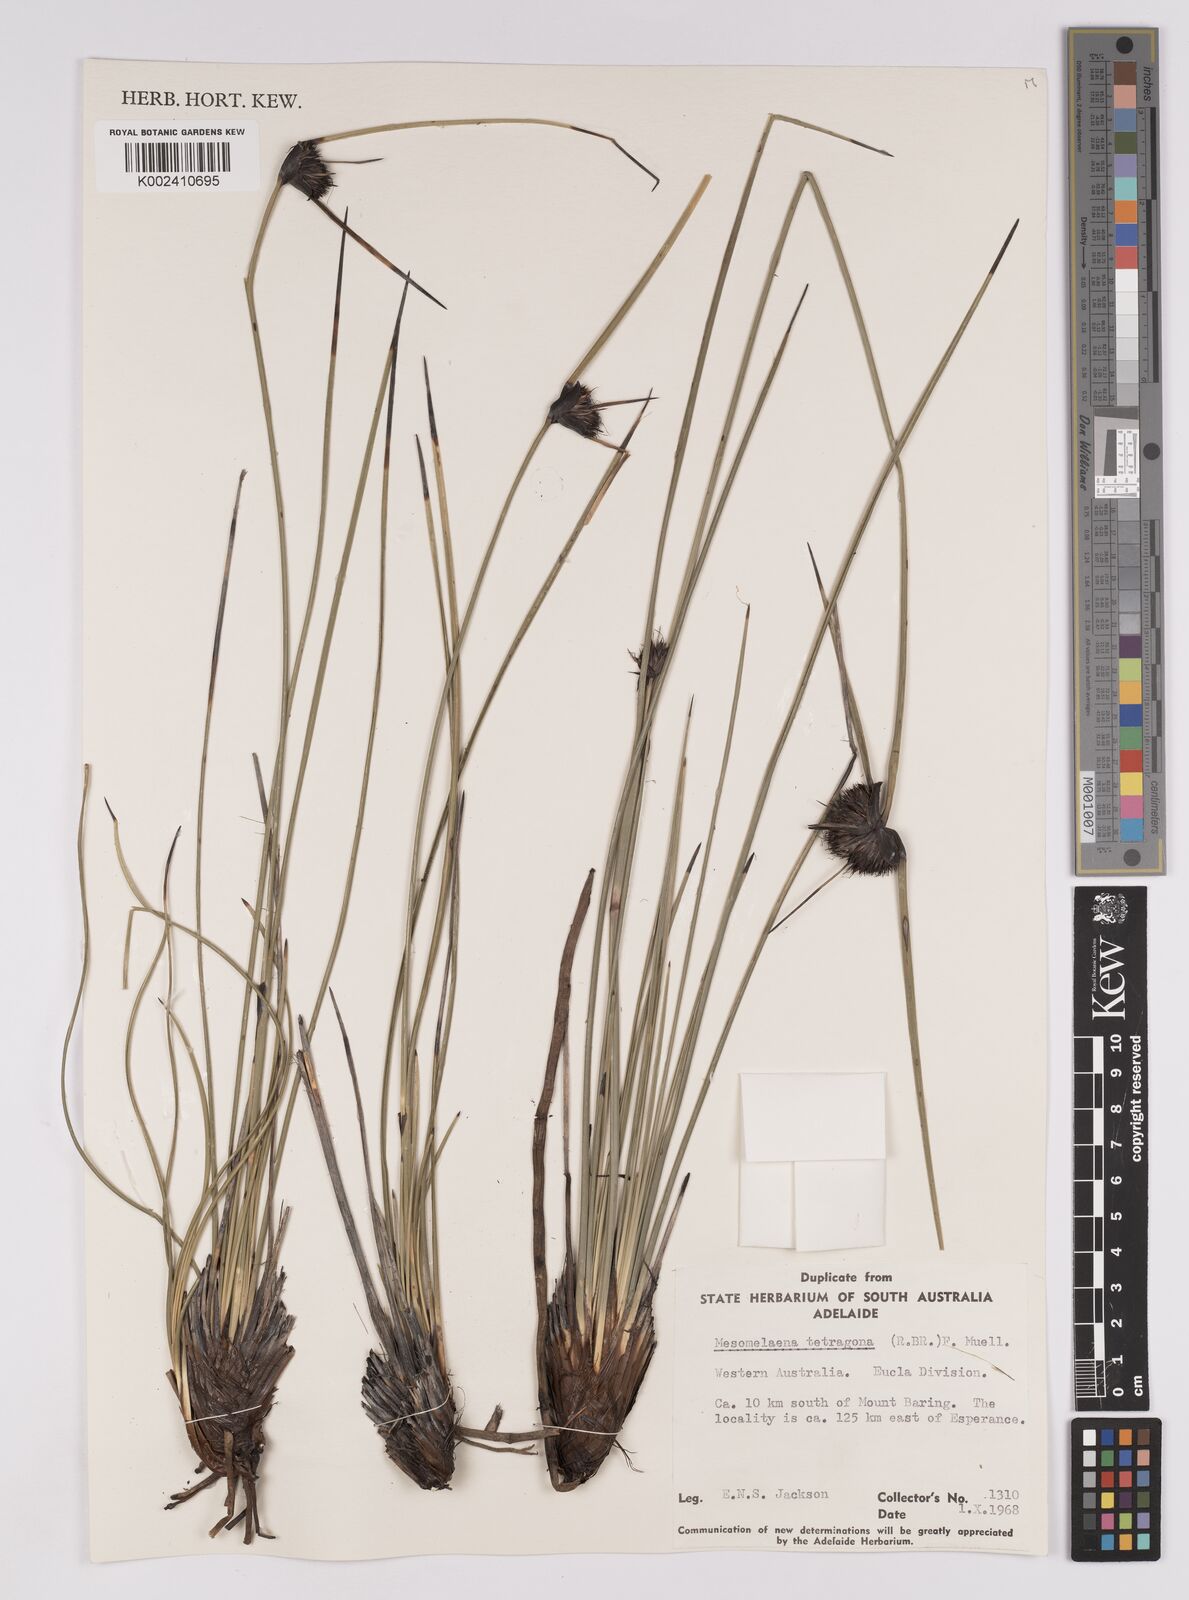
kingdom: Plantae
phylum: Tracheophyta
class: Liliopsida
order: Poales
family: Cyperaceae
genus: Mesomelaena
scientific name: Mesomelaena tetragona
